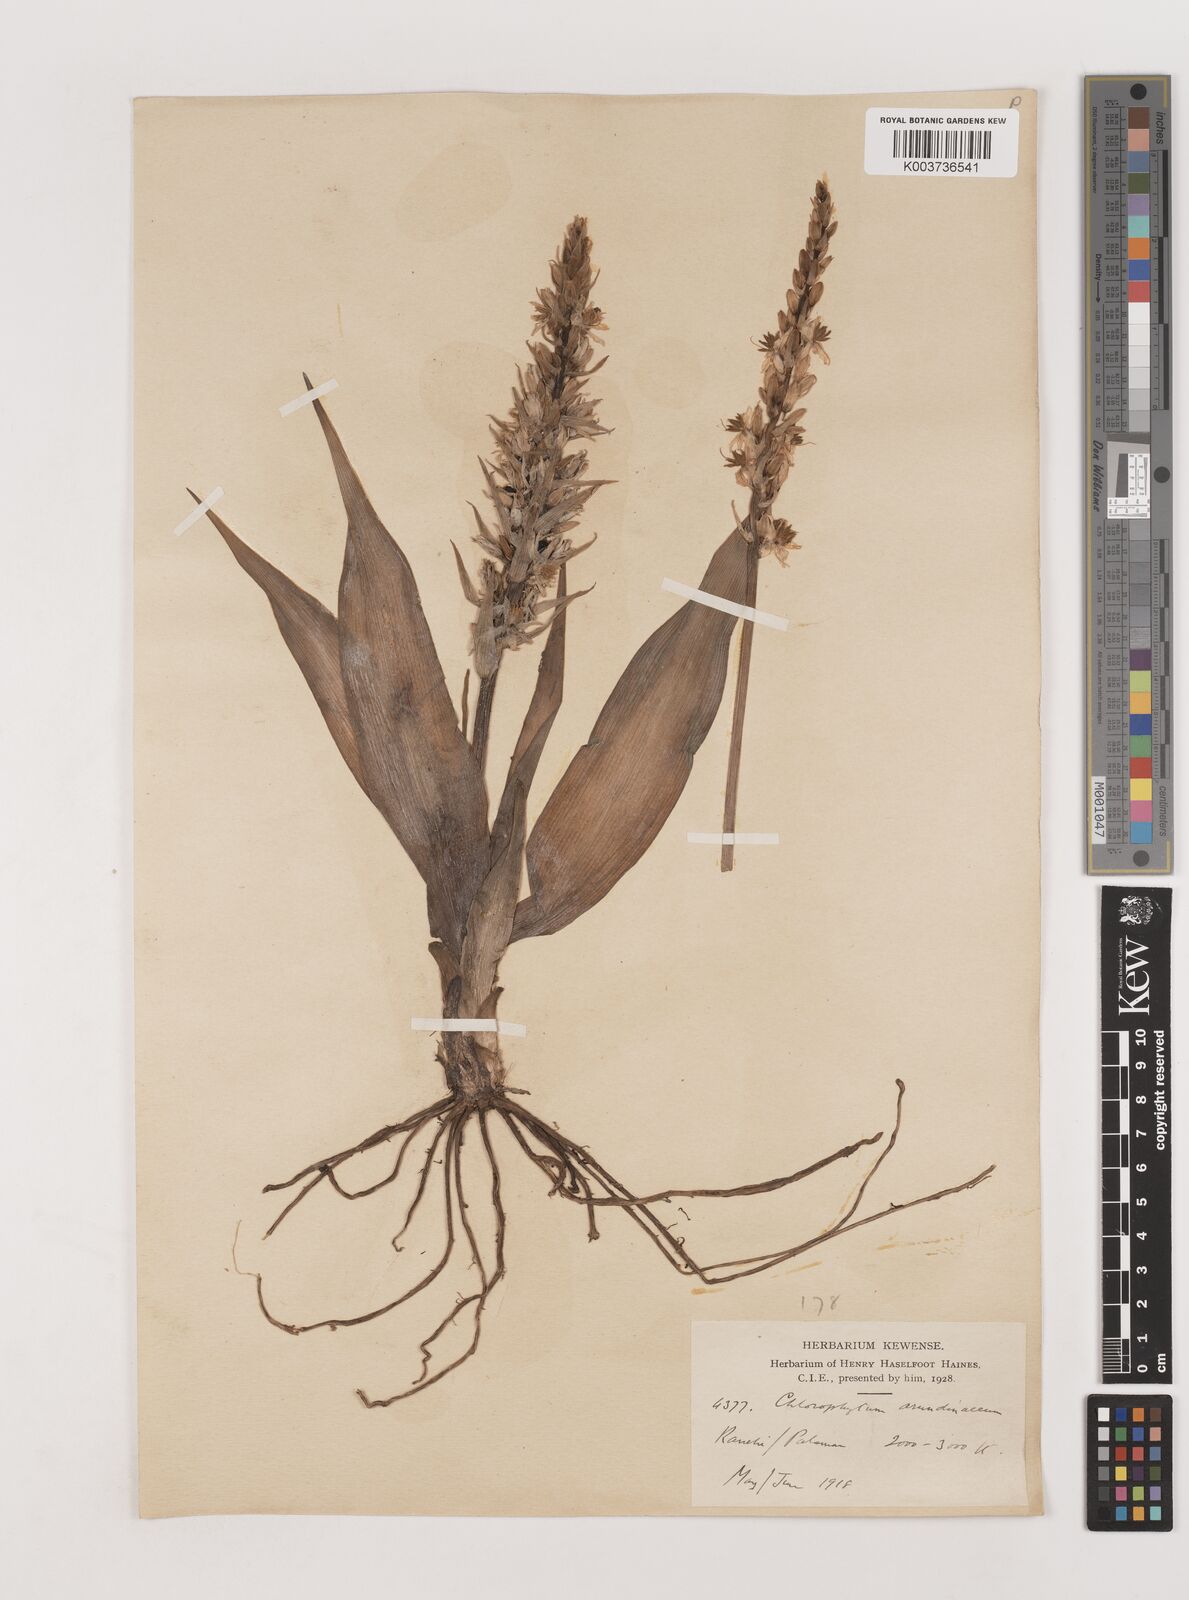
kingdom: Plantae
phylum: Tracheophyta
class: Liliopsida
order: Asparagales
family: Asparagaceae
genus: Chlorophytum
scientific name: Chlorophytum arundinaceum
